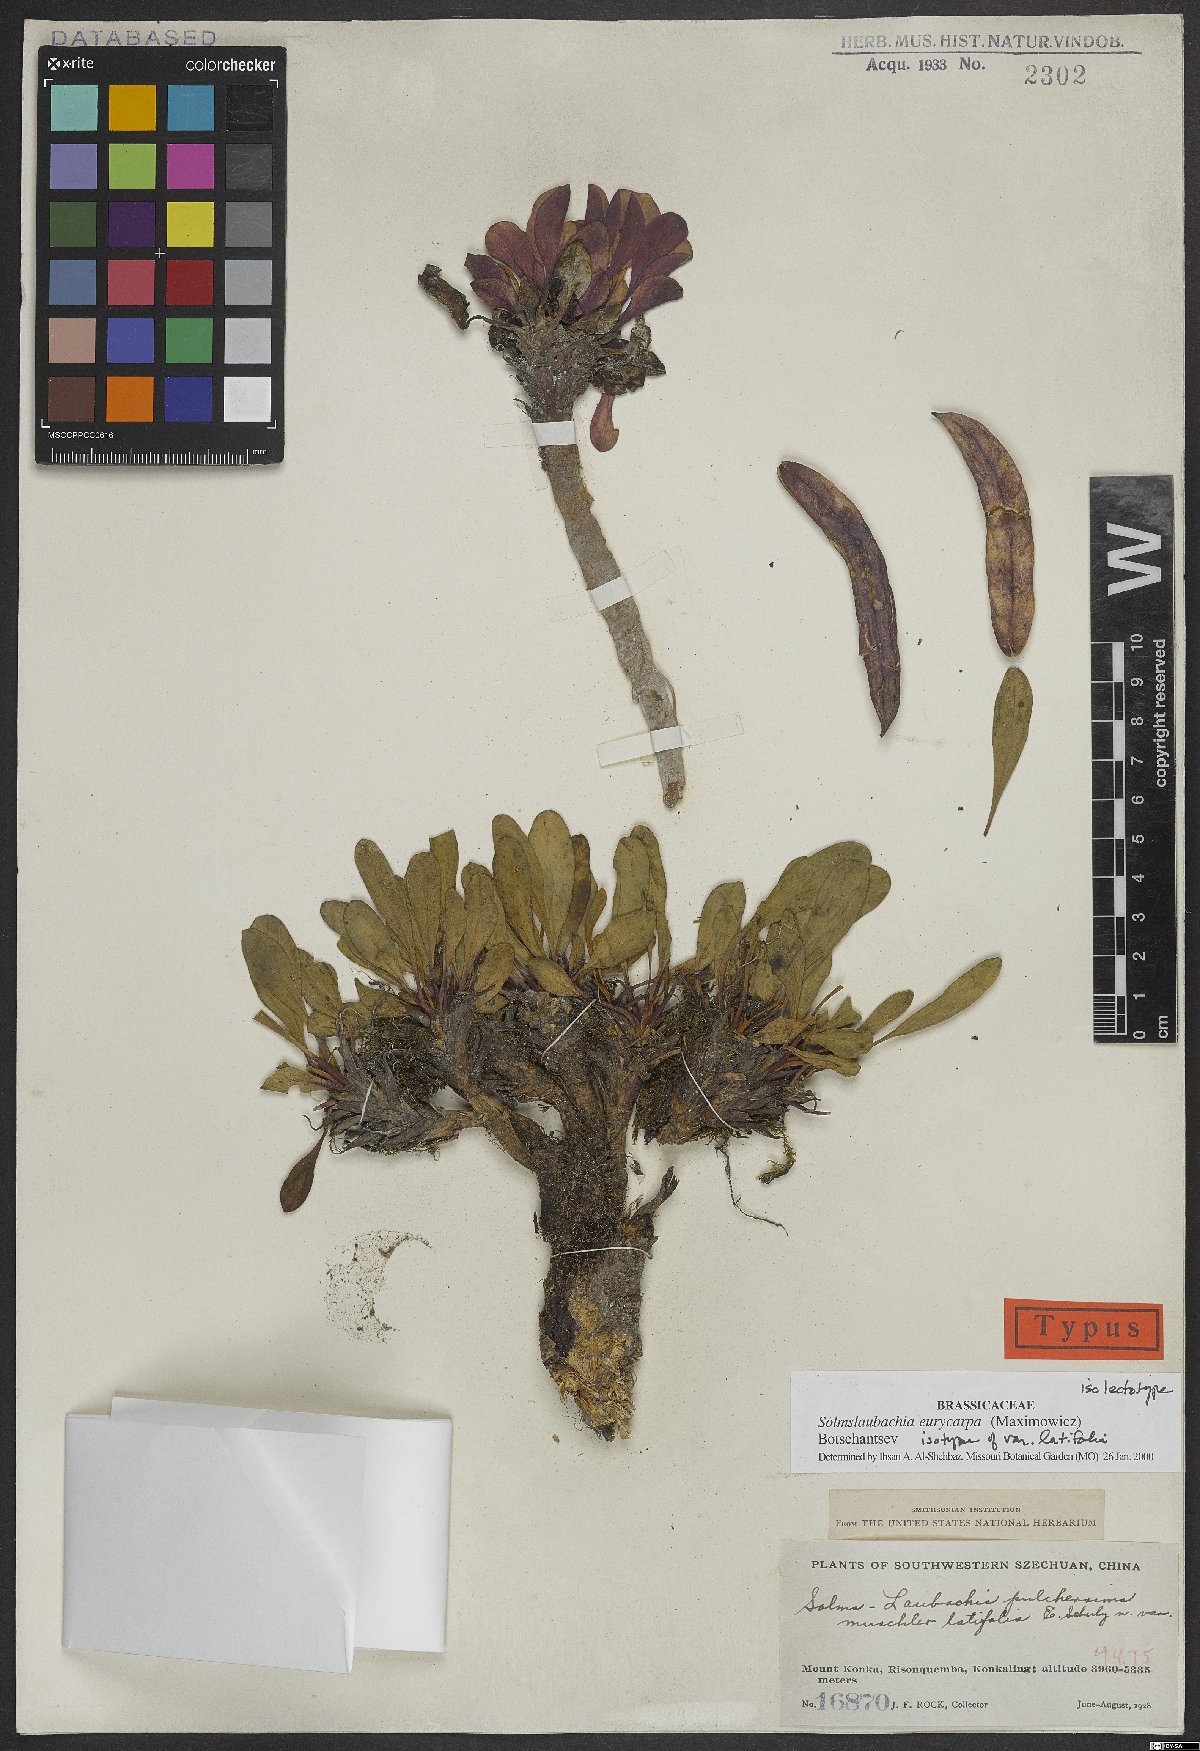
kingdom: Plantae
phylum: Tracheophyta
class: Magnoliopsida
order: Brassicales
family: Brassicaceae
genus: Solms-laubachia
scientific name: Solms-laubachia eurycarpa
